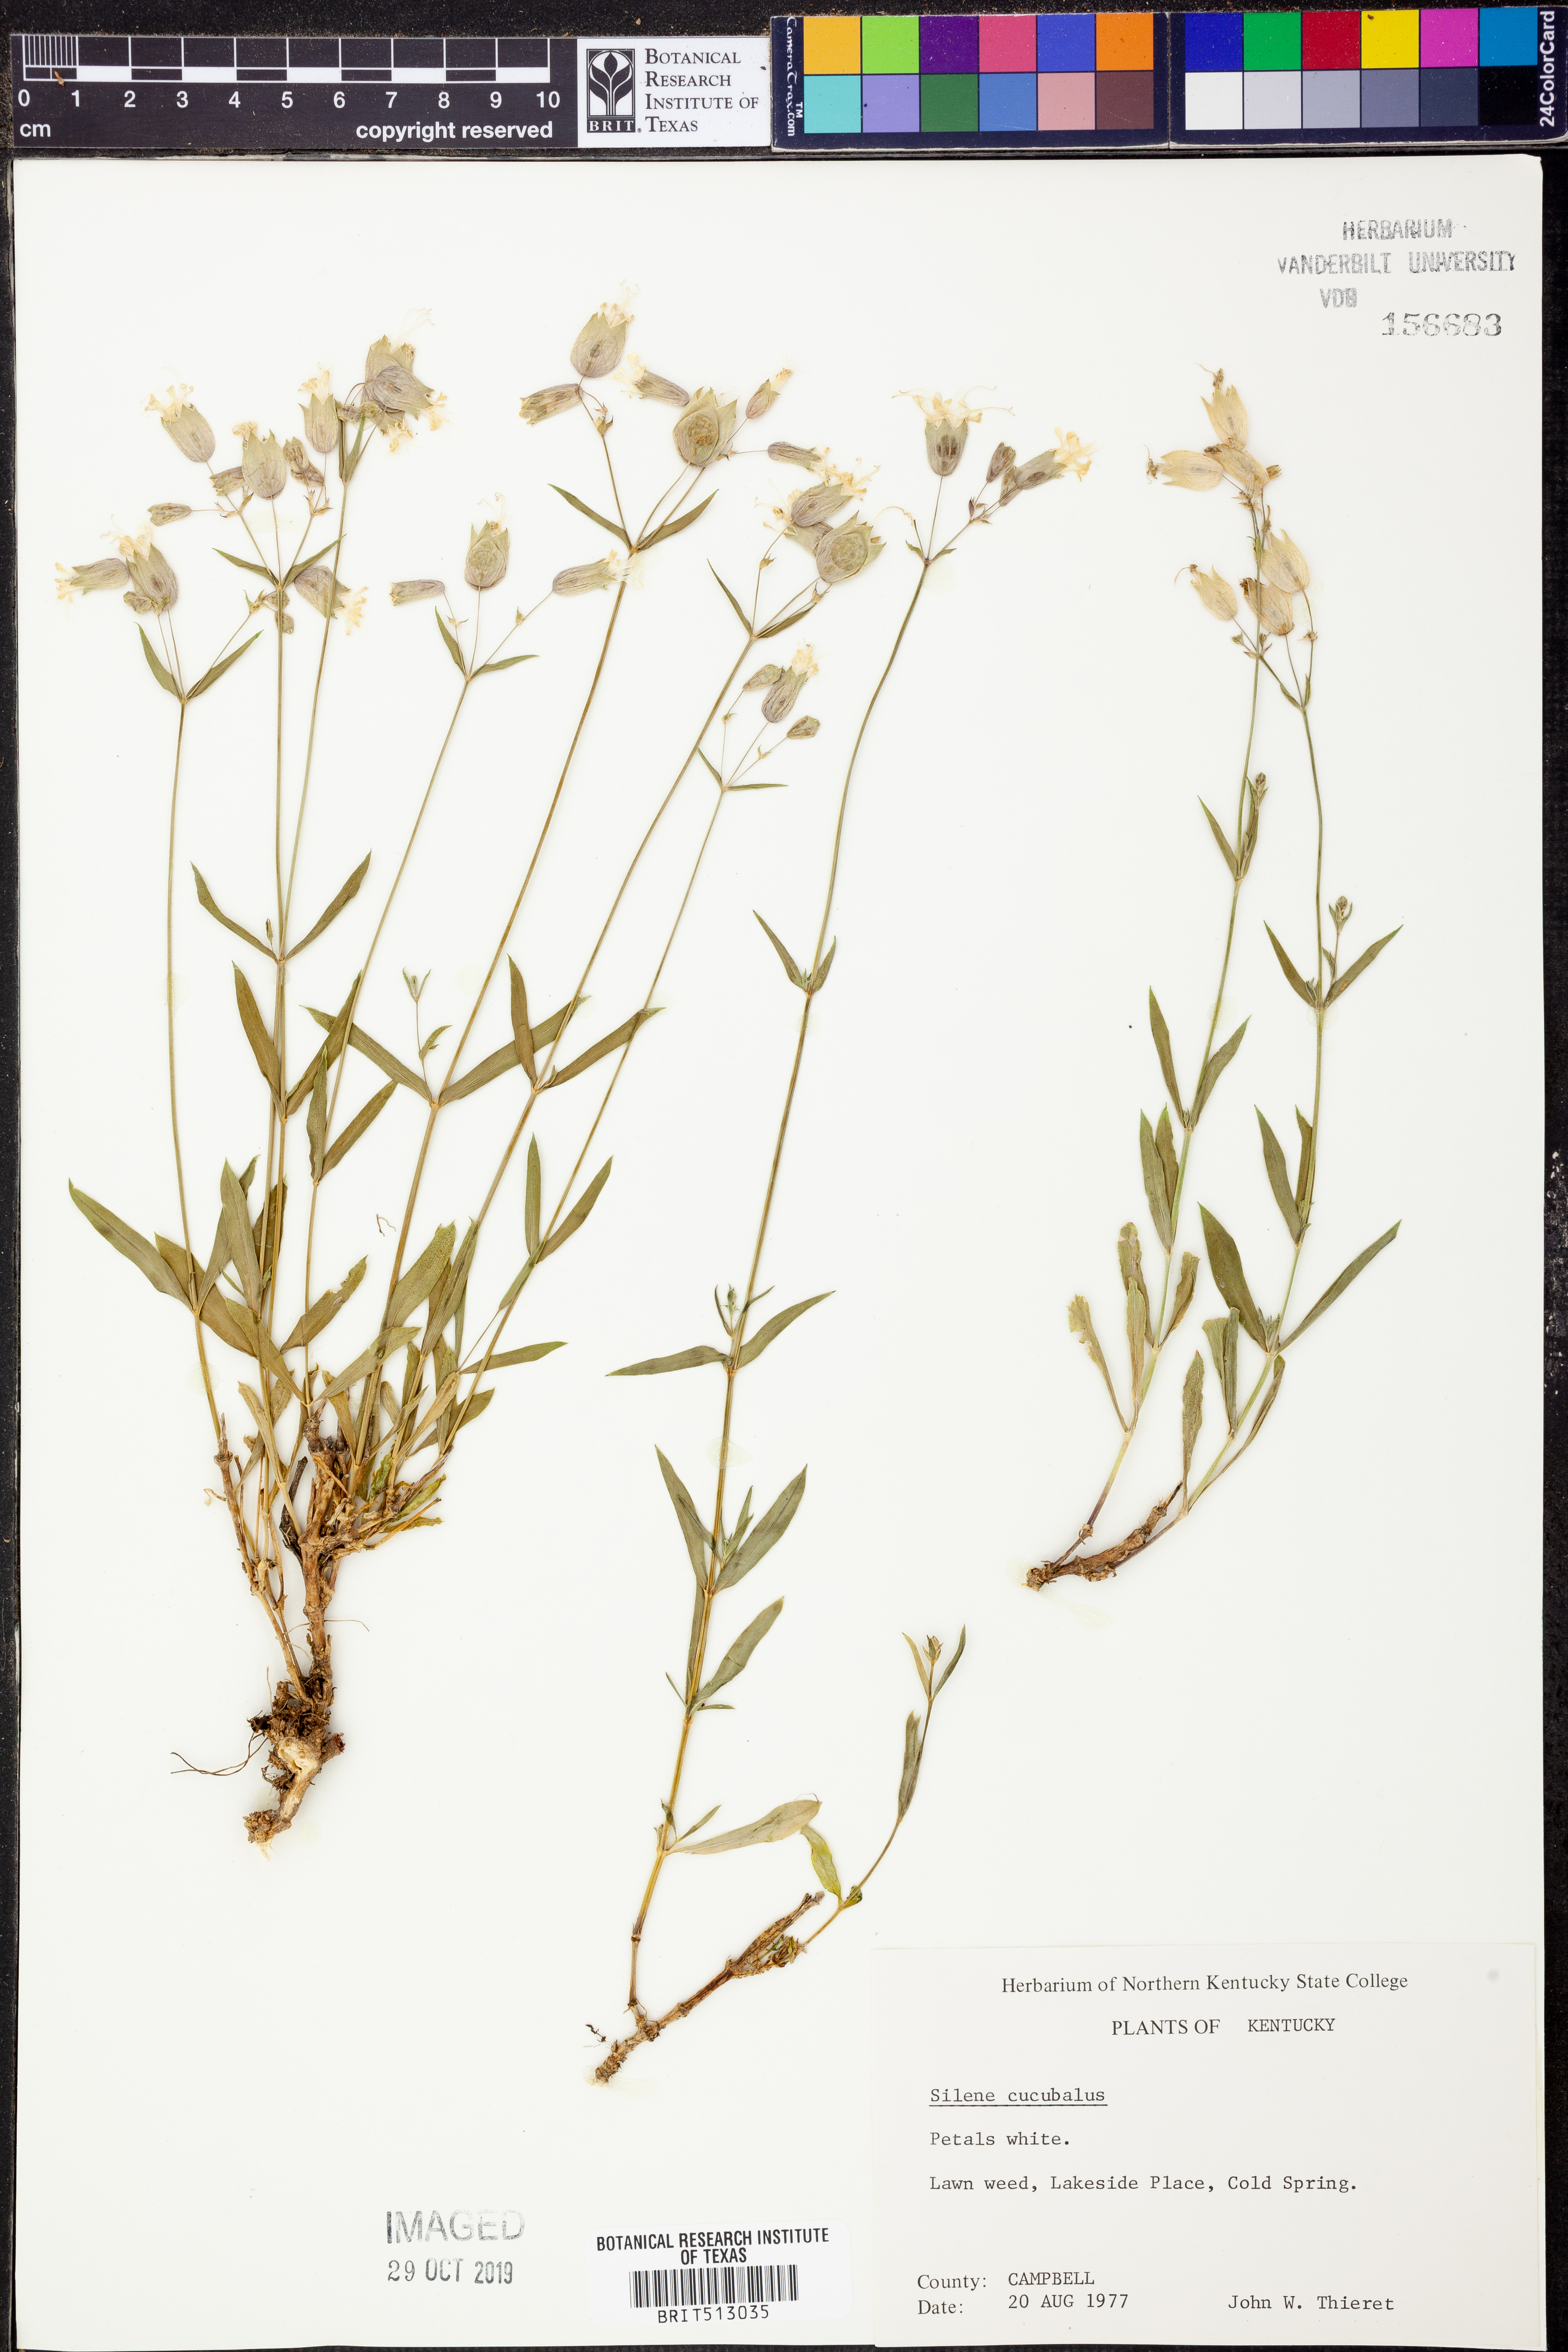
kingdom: Plantae
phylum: Tracheophyta
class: Magnoliopsida
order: Caryophyllales
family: Caryophyllaceae
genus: Silene
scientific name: Silene vulgaris
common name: Bladder campion
